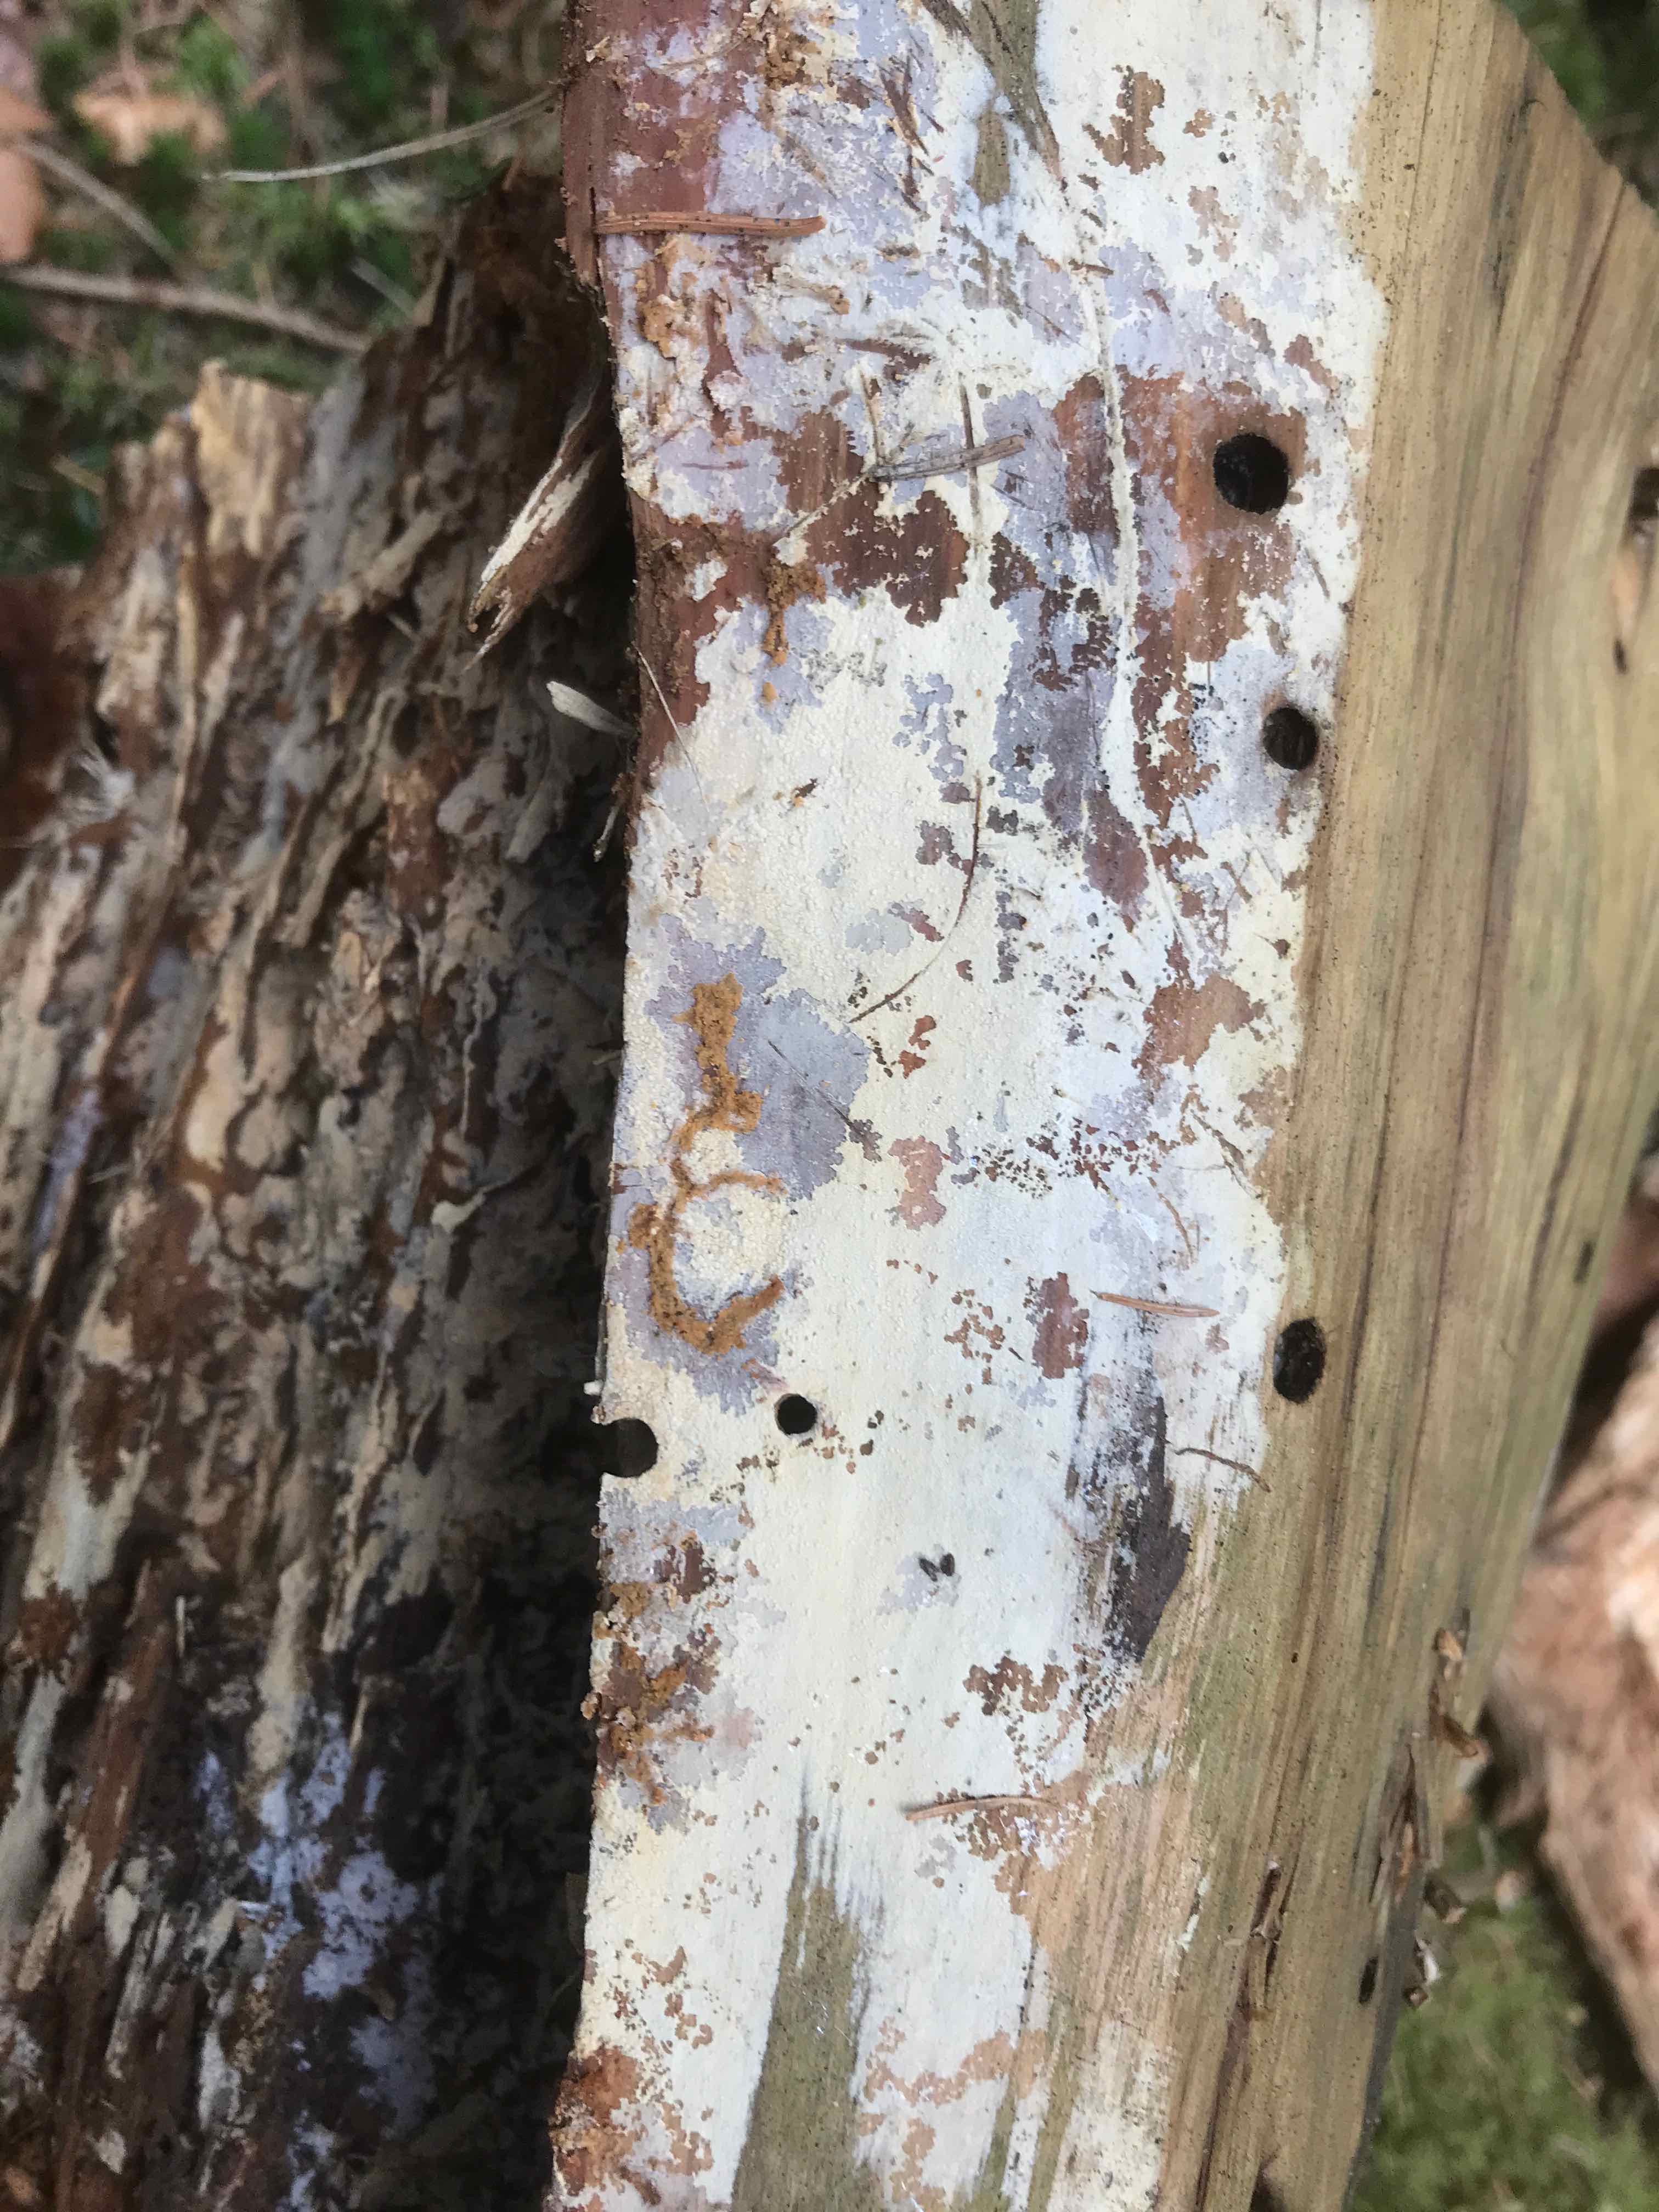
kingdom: Fungi
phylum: Basidiomycota
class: Agaricomycetes
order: Corticiales
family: Corticiaceae
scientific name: Corticiaceae
